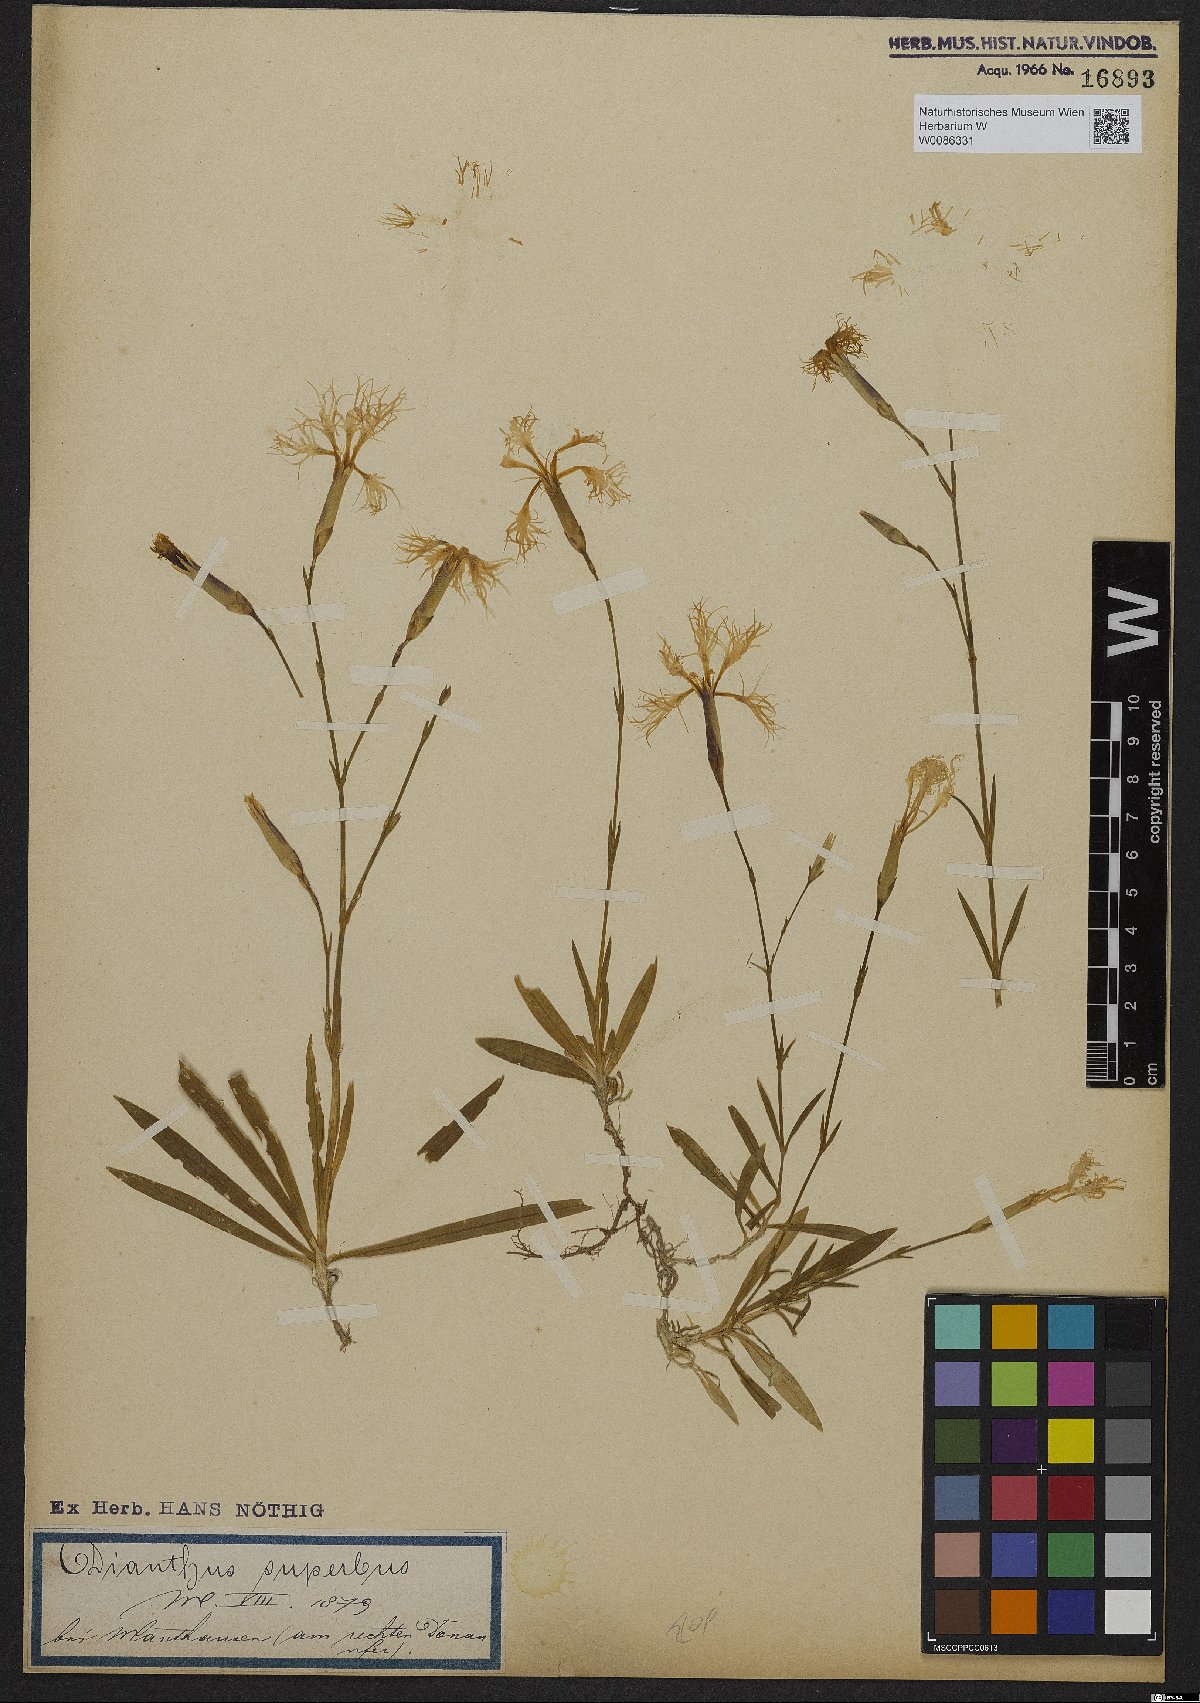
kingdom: Plantae
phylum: Tracheophyta
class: Magnoliopsida
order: Caryophyllales
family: Caryophyllaceae
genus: Dianthus
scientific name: Dianthus superbus
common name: Fringed pink
